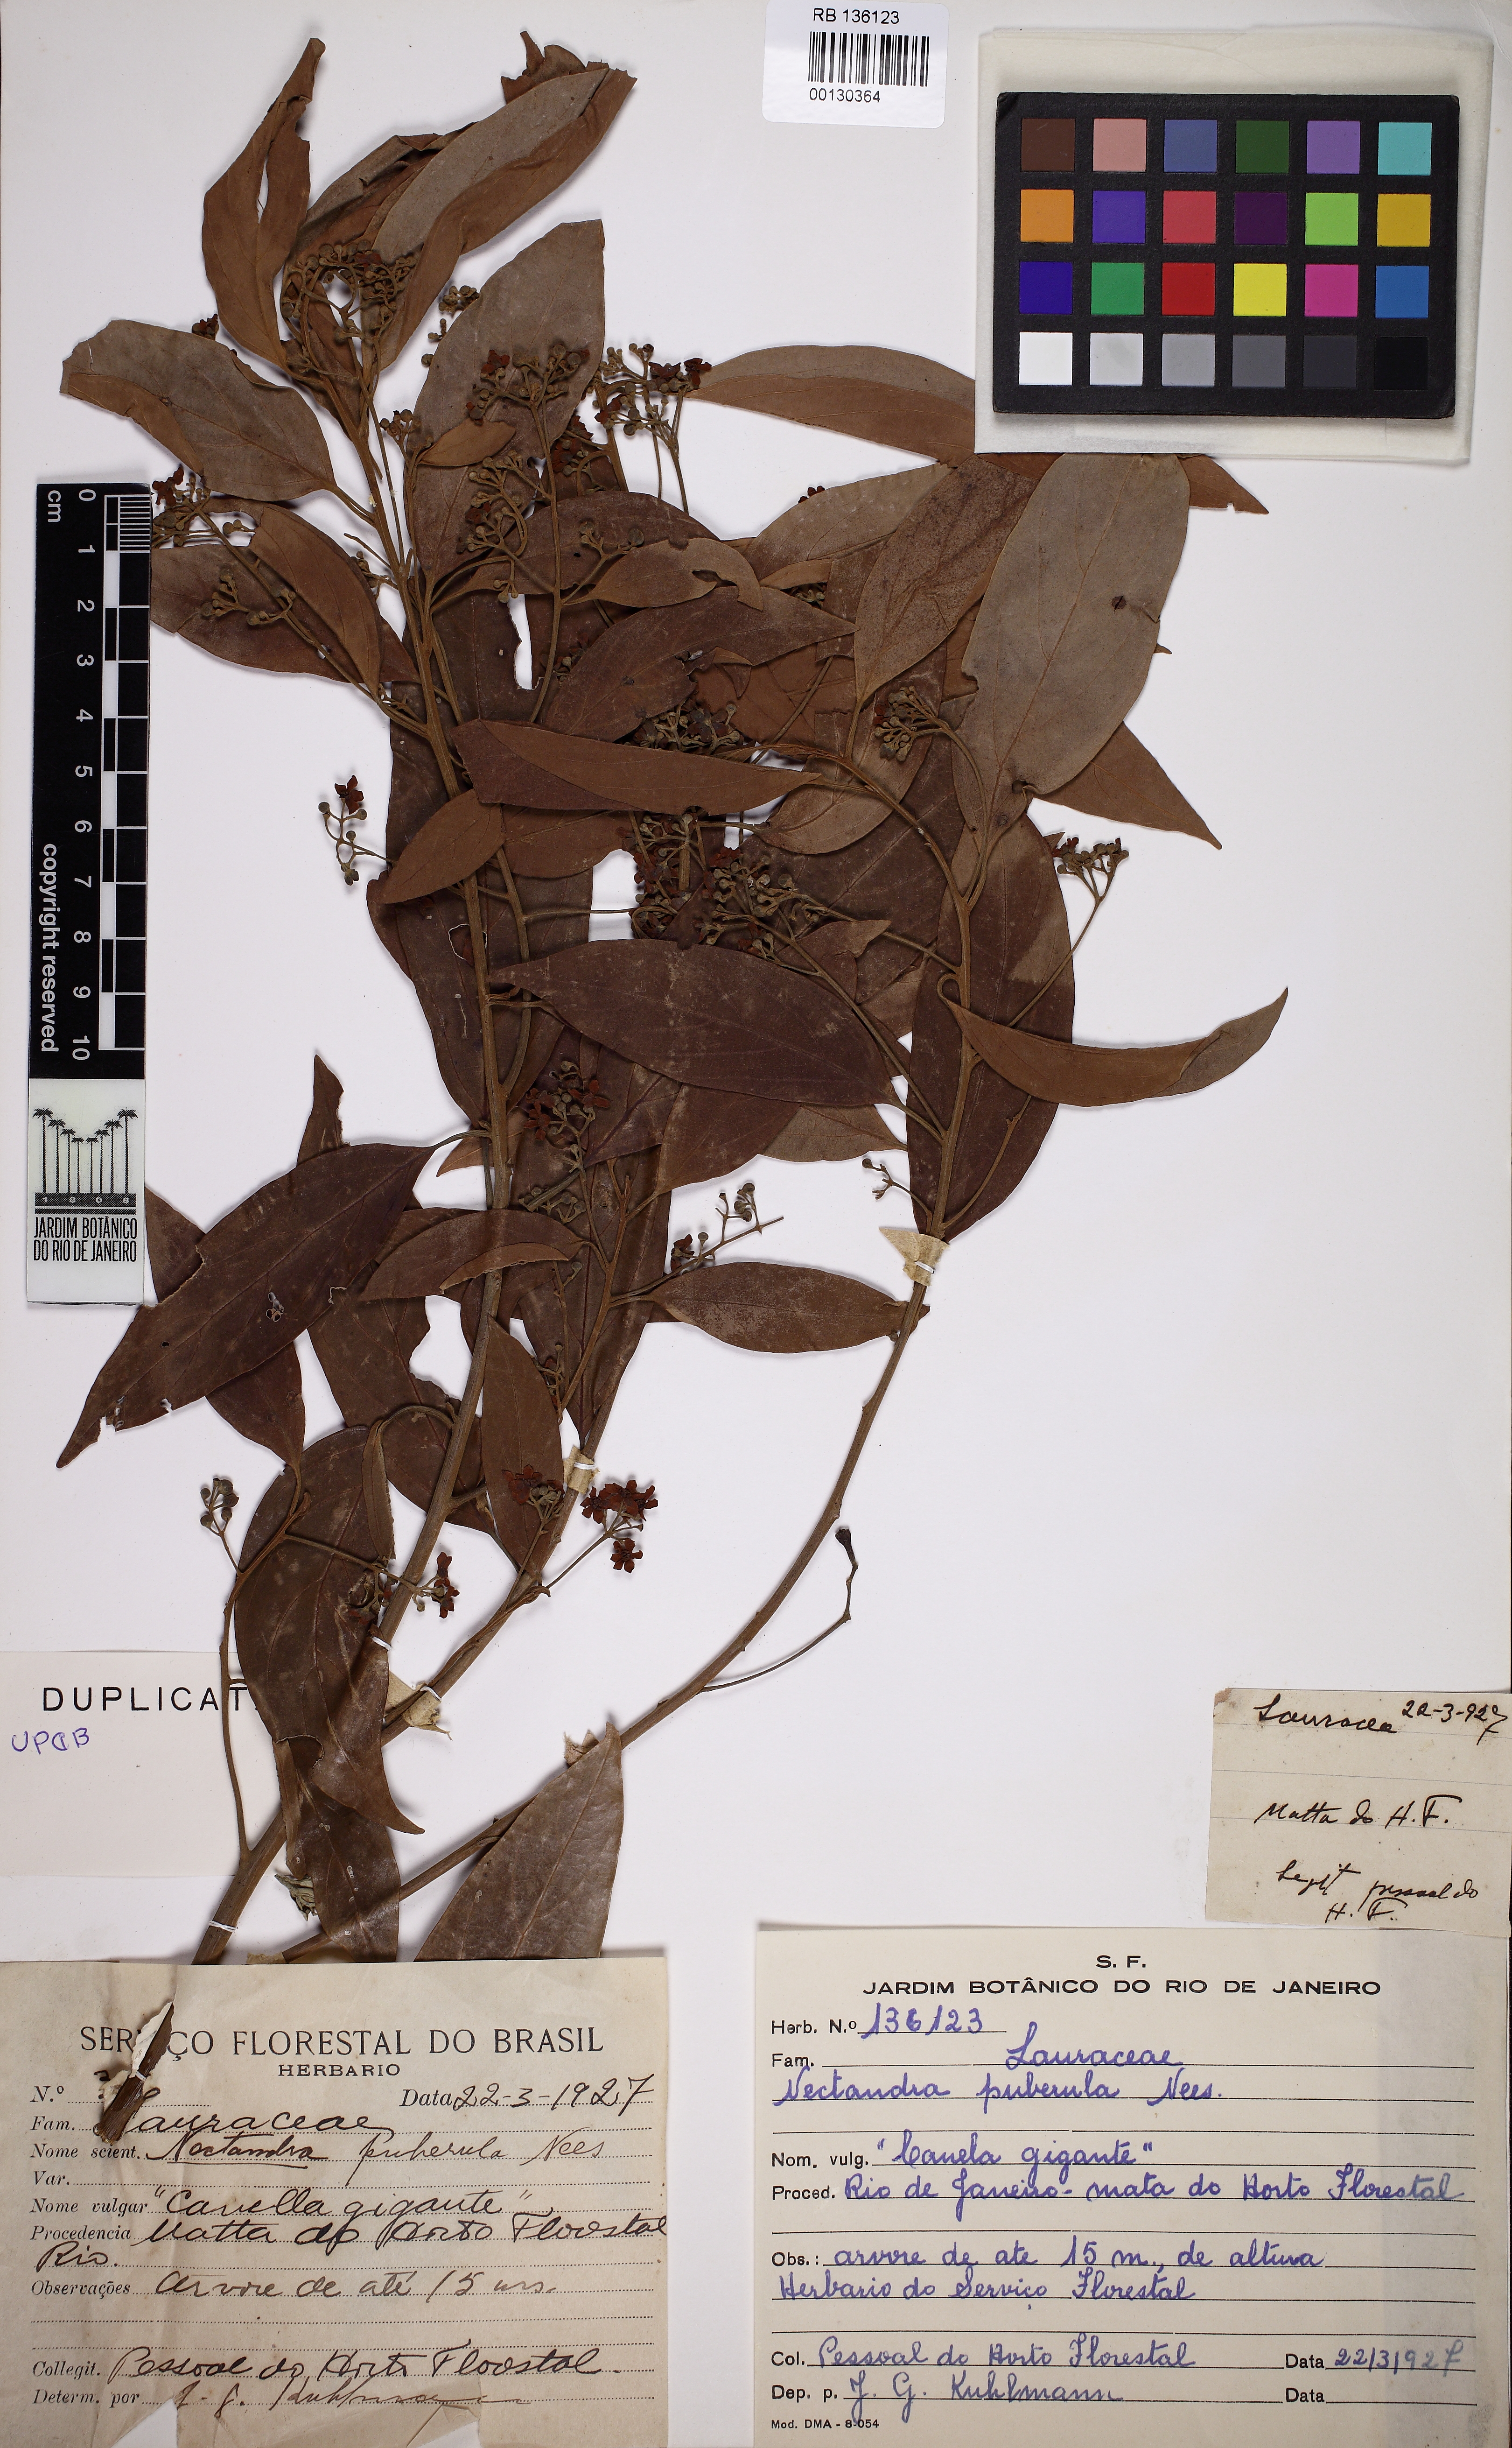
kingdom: Plantae
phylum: Tracheophyta
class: Magnoliopsida
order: Laurales
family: Lauraceae
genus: Nectandra
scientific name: Nectandra puberula
